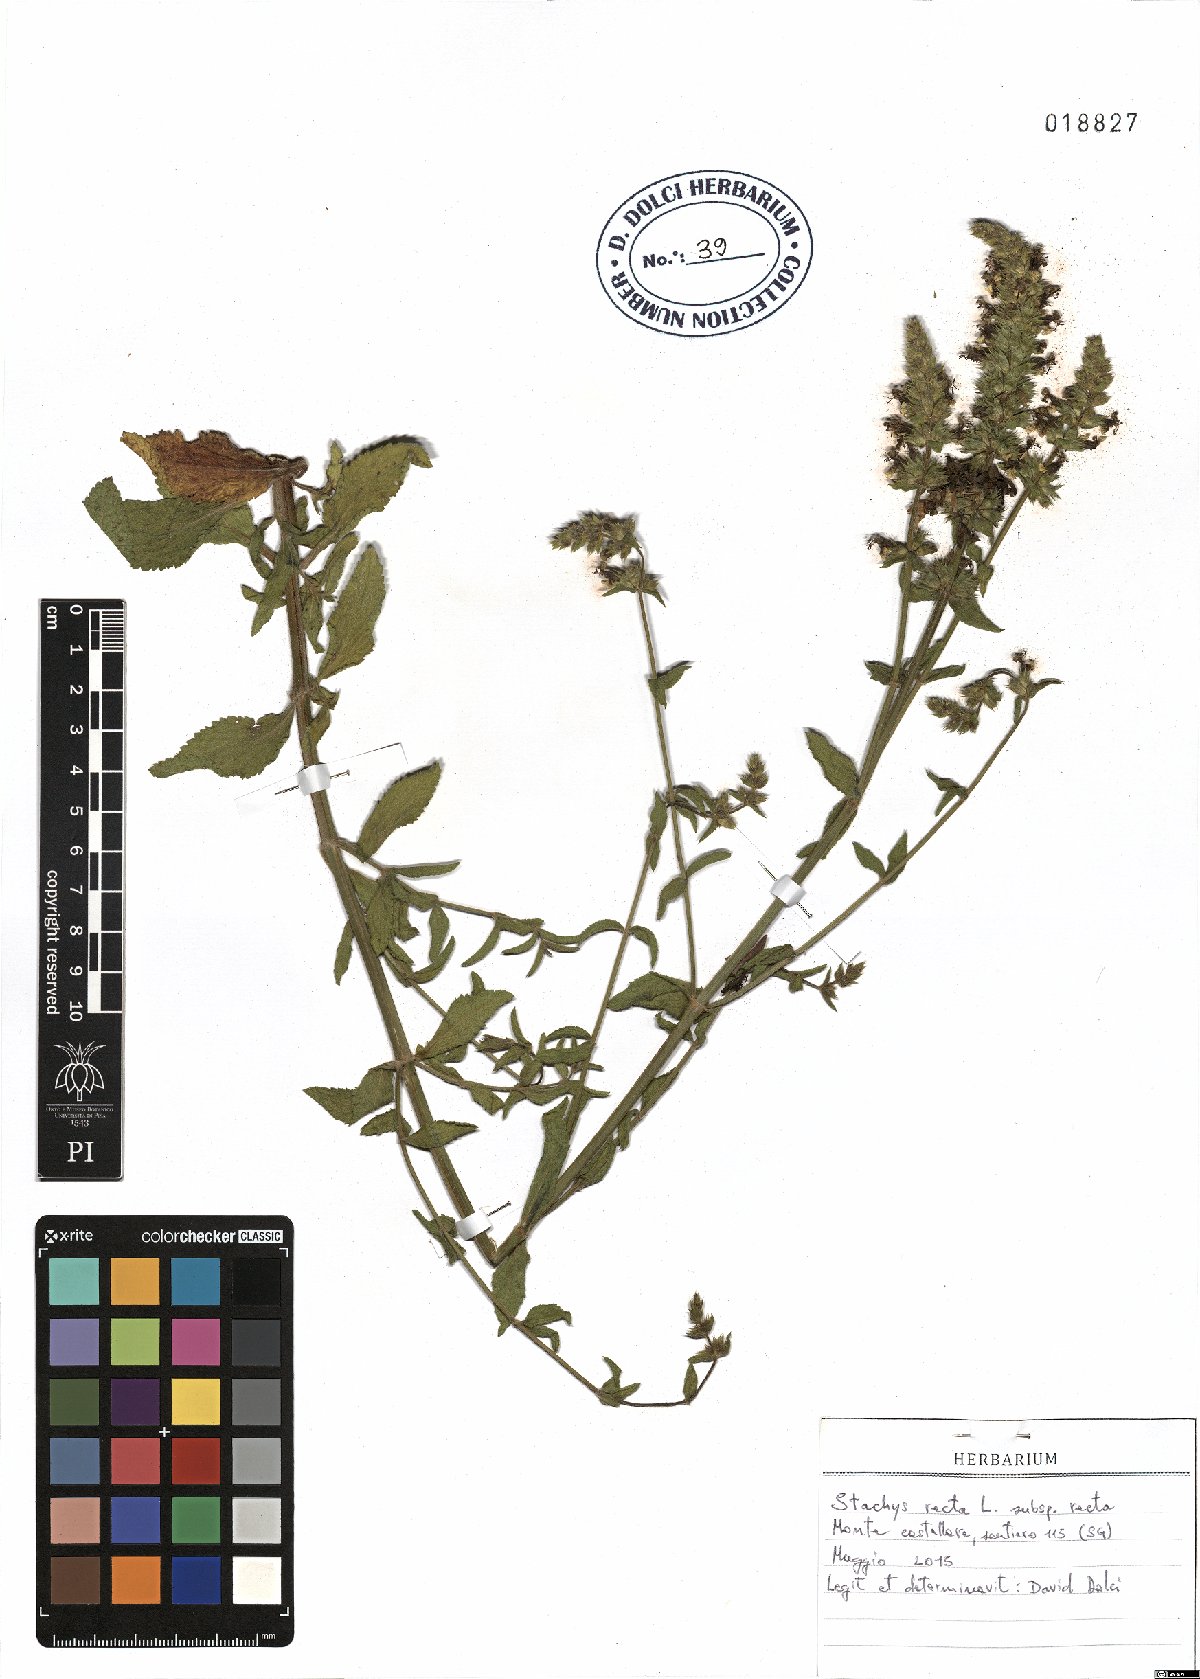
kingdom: Plantae
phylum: Tracheophyta
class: Magnoliopsida
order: Lamiales
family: Lamiaceae
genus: Stachys
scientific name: Stachys recta
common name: Perennial yellow-woundwort
